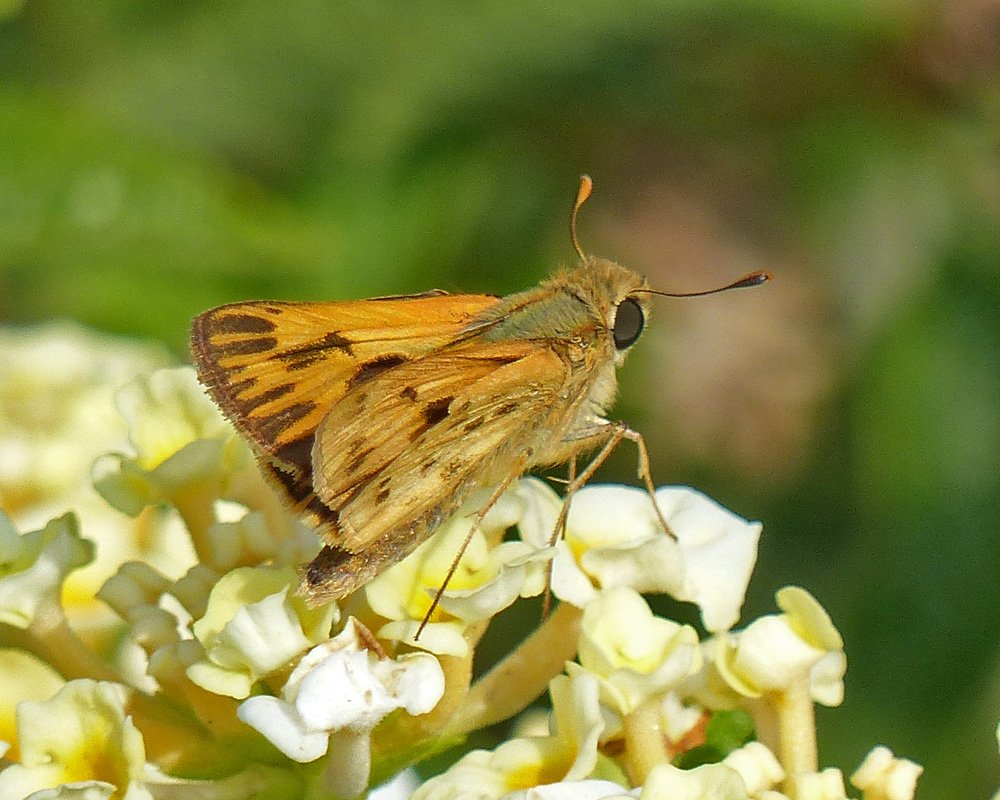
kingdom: Animalia
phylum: Arthropoda
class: Insecta
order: Lepidoptera
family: Hesperiidae
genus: Hylephila
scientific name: Hylephila phyleus
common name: Fiery Skipper
